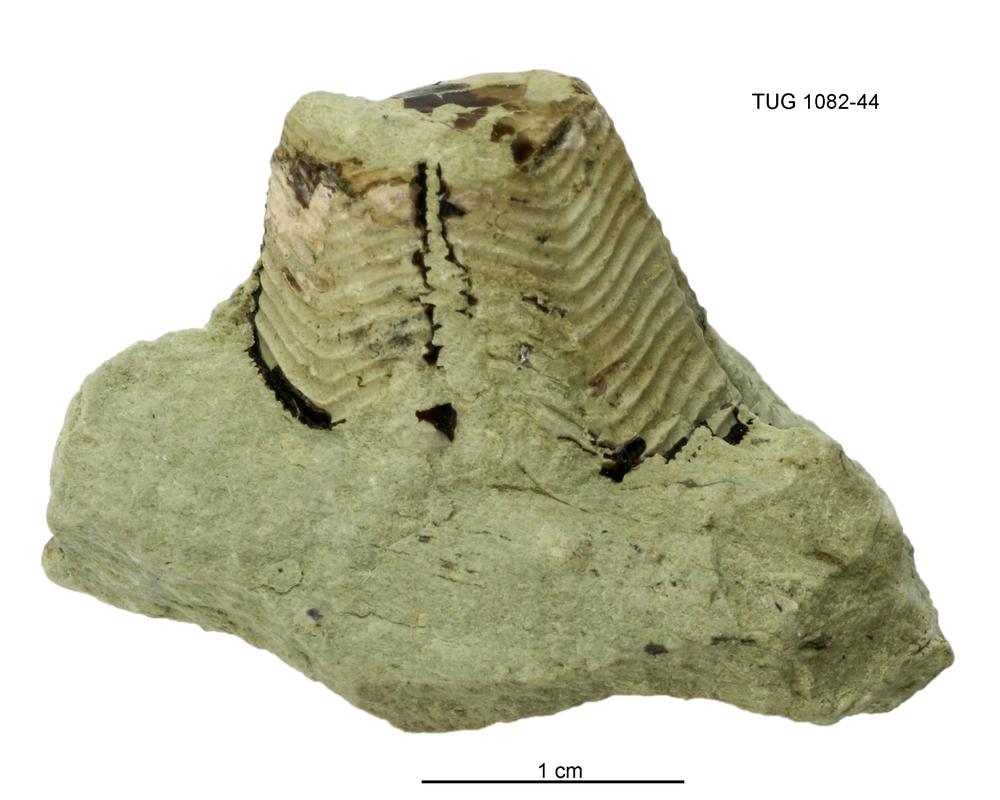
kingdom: Animalia
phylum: Cnidaria
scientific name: Cnidaria
